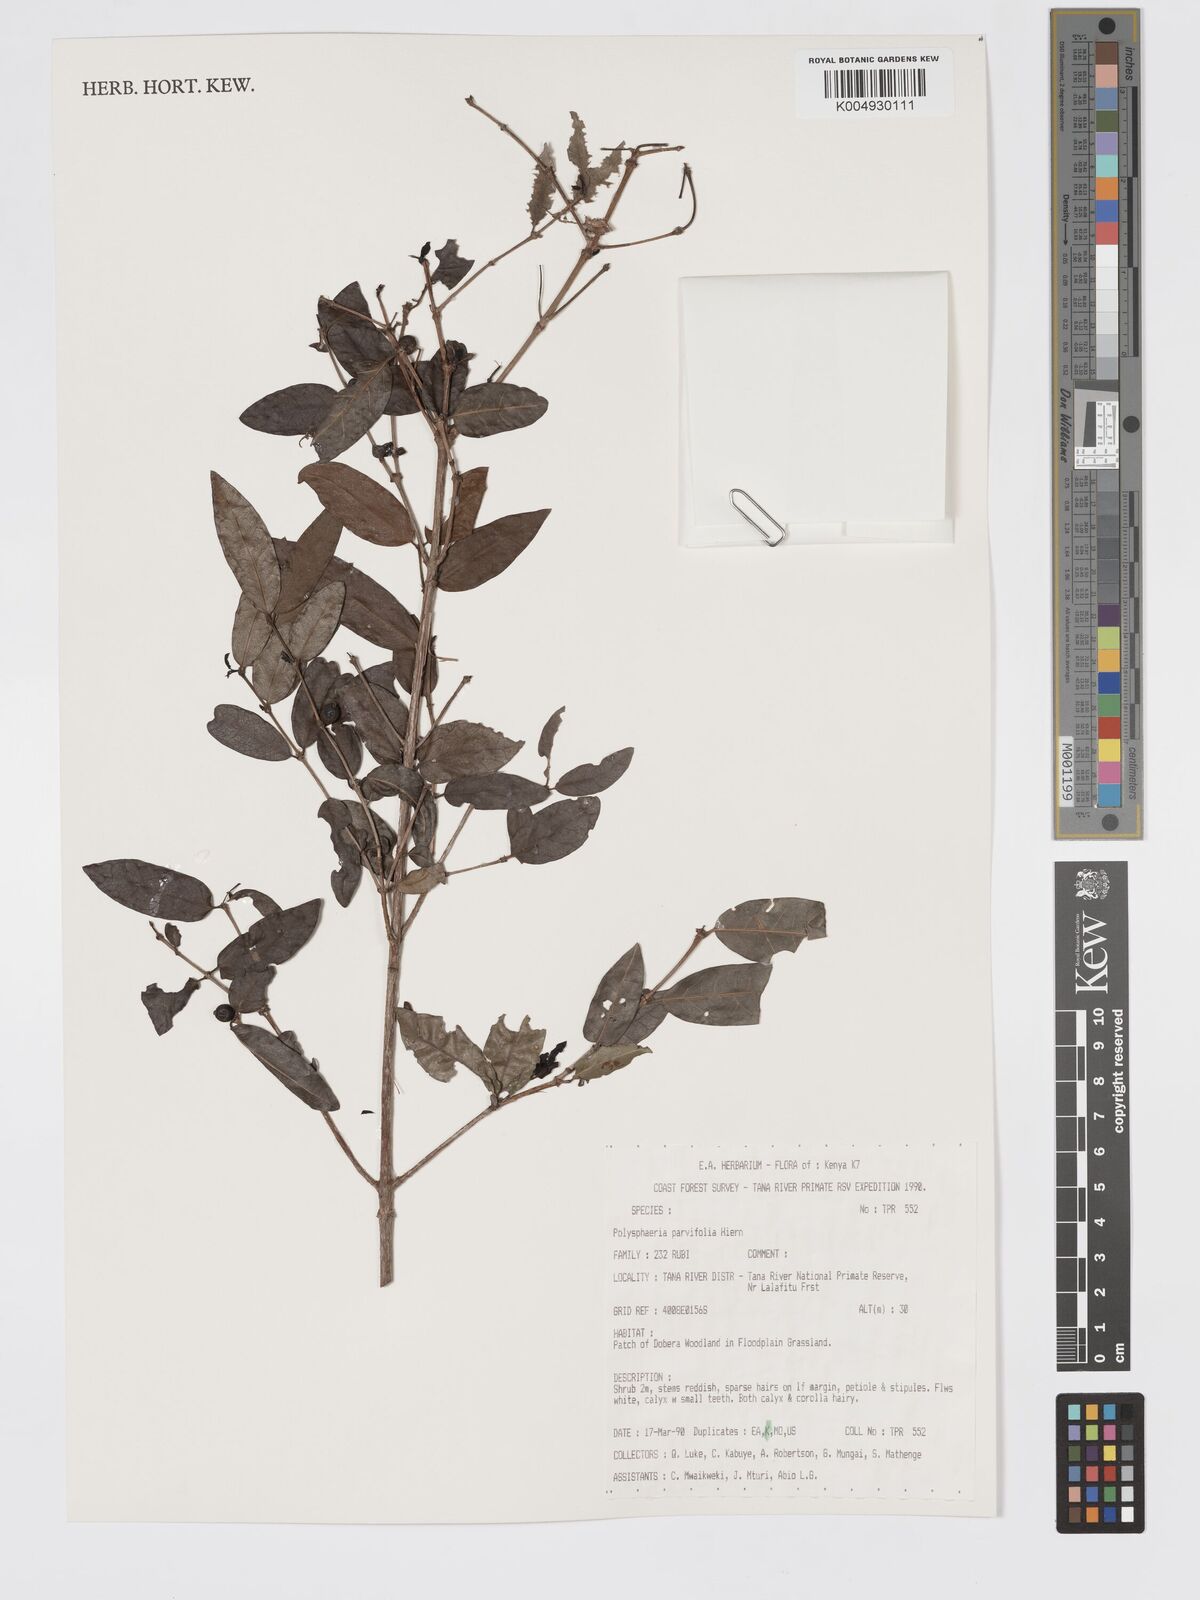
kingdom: Plantae
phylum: Tracheophyta
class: Magnoliopsida
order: Gentianales
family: Rubiaceae
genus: Polysphaeria
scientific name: Polysphaeria parvifolia
